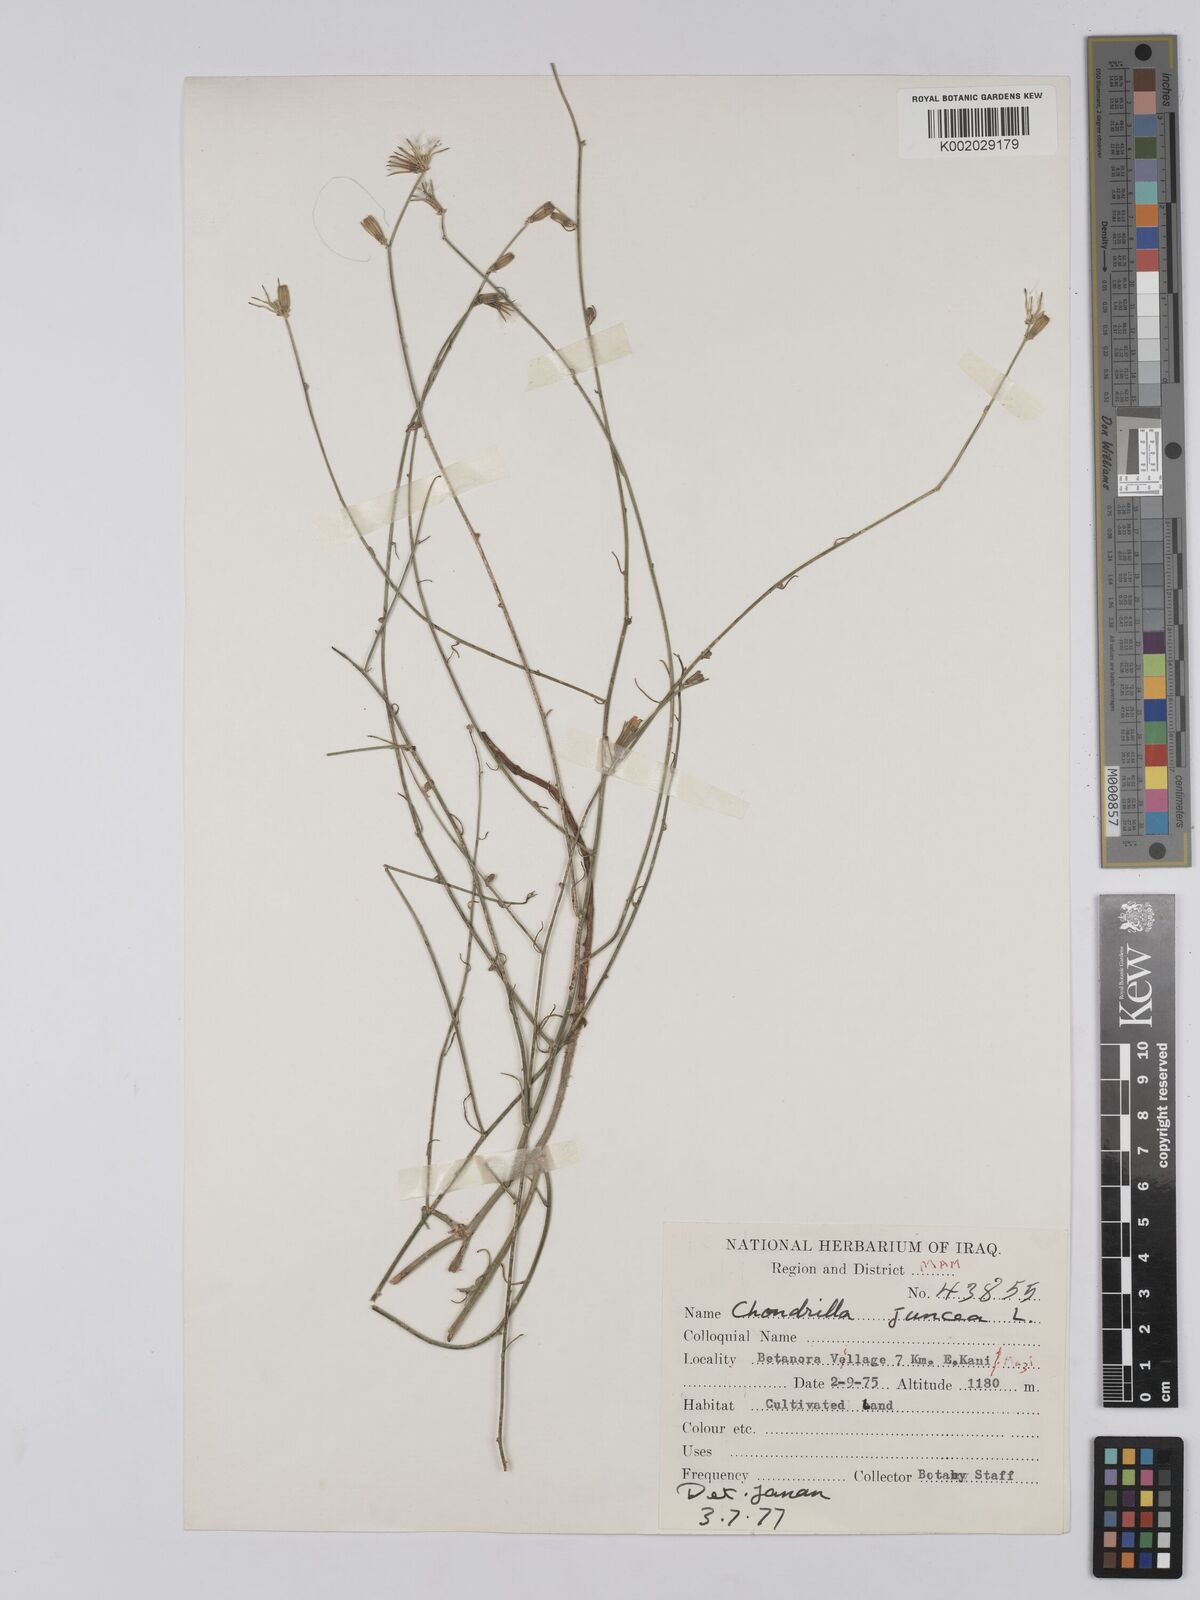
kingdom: Plantae
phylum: Tracheophyta
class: Magnoliopsida
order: Asterales
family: Asteraceae
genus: Chondrilla
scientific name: Chondrilla juncea
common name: Skeleton weed
